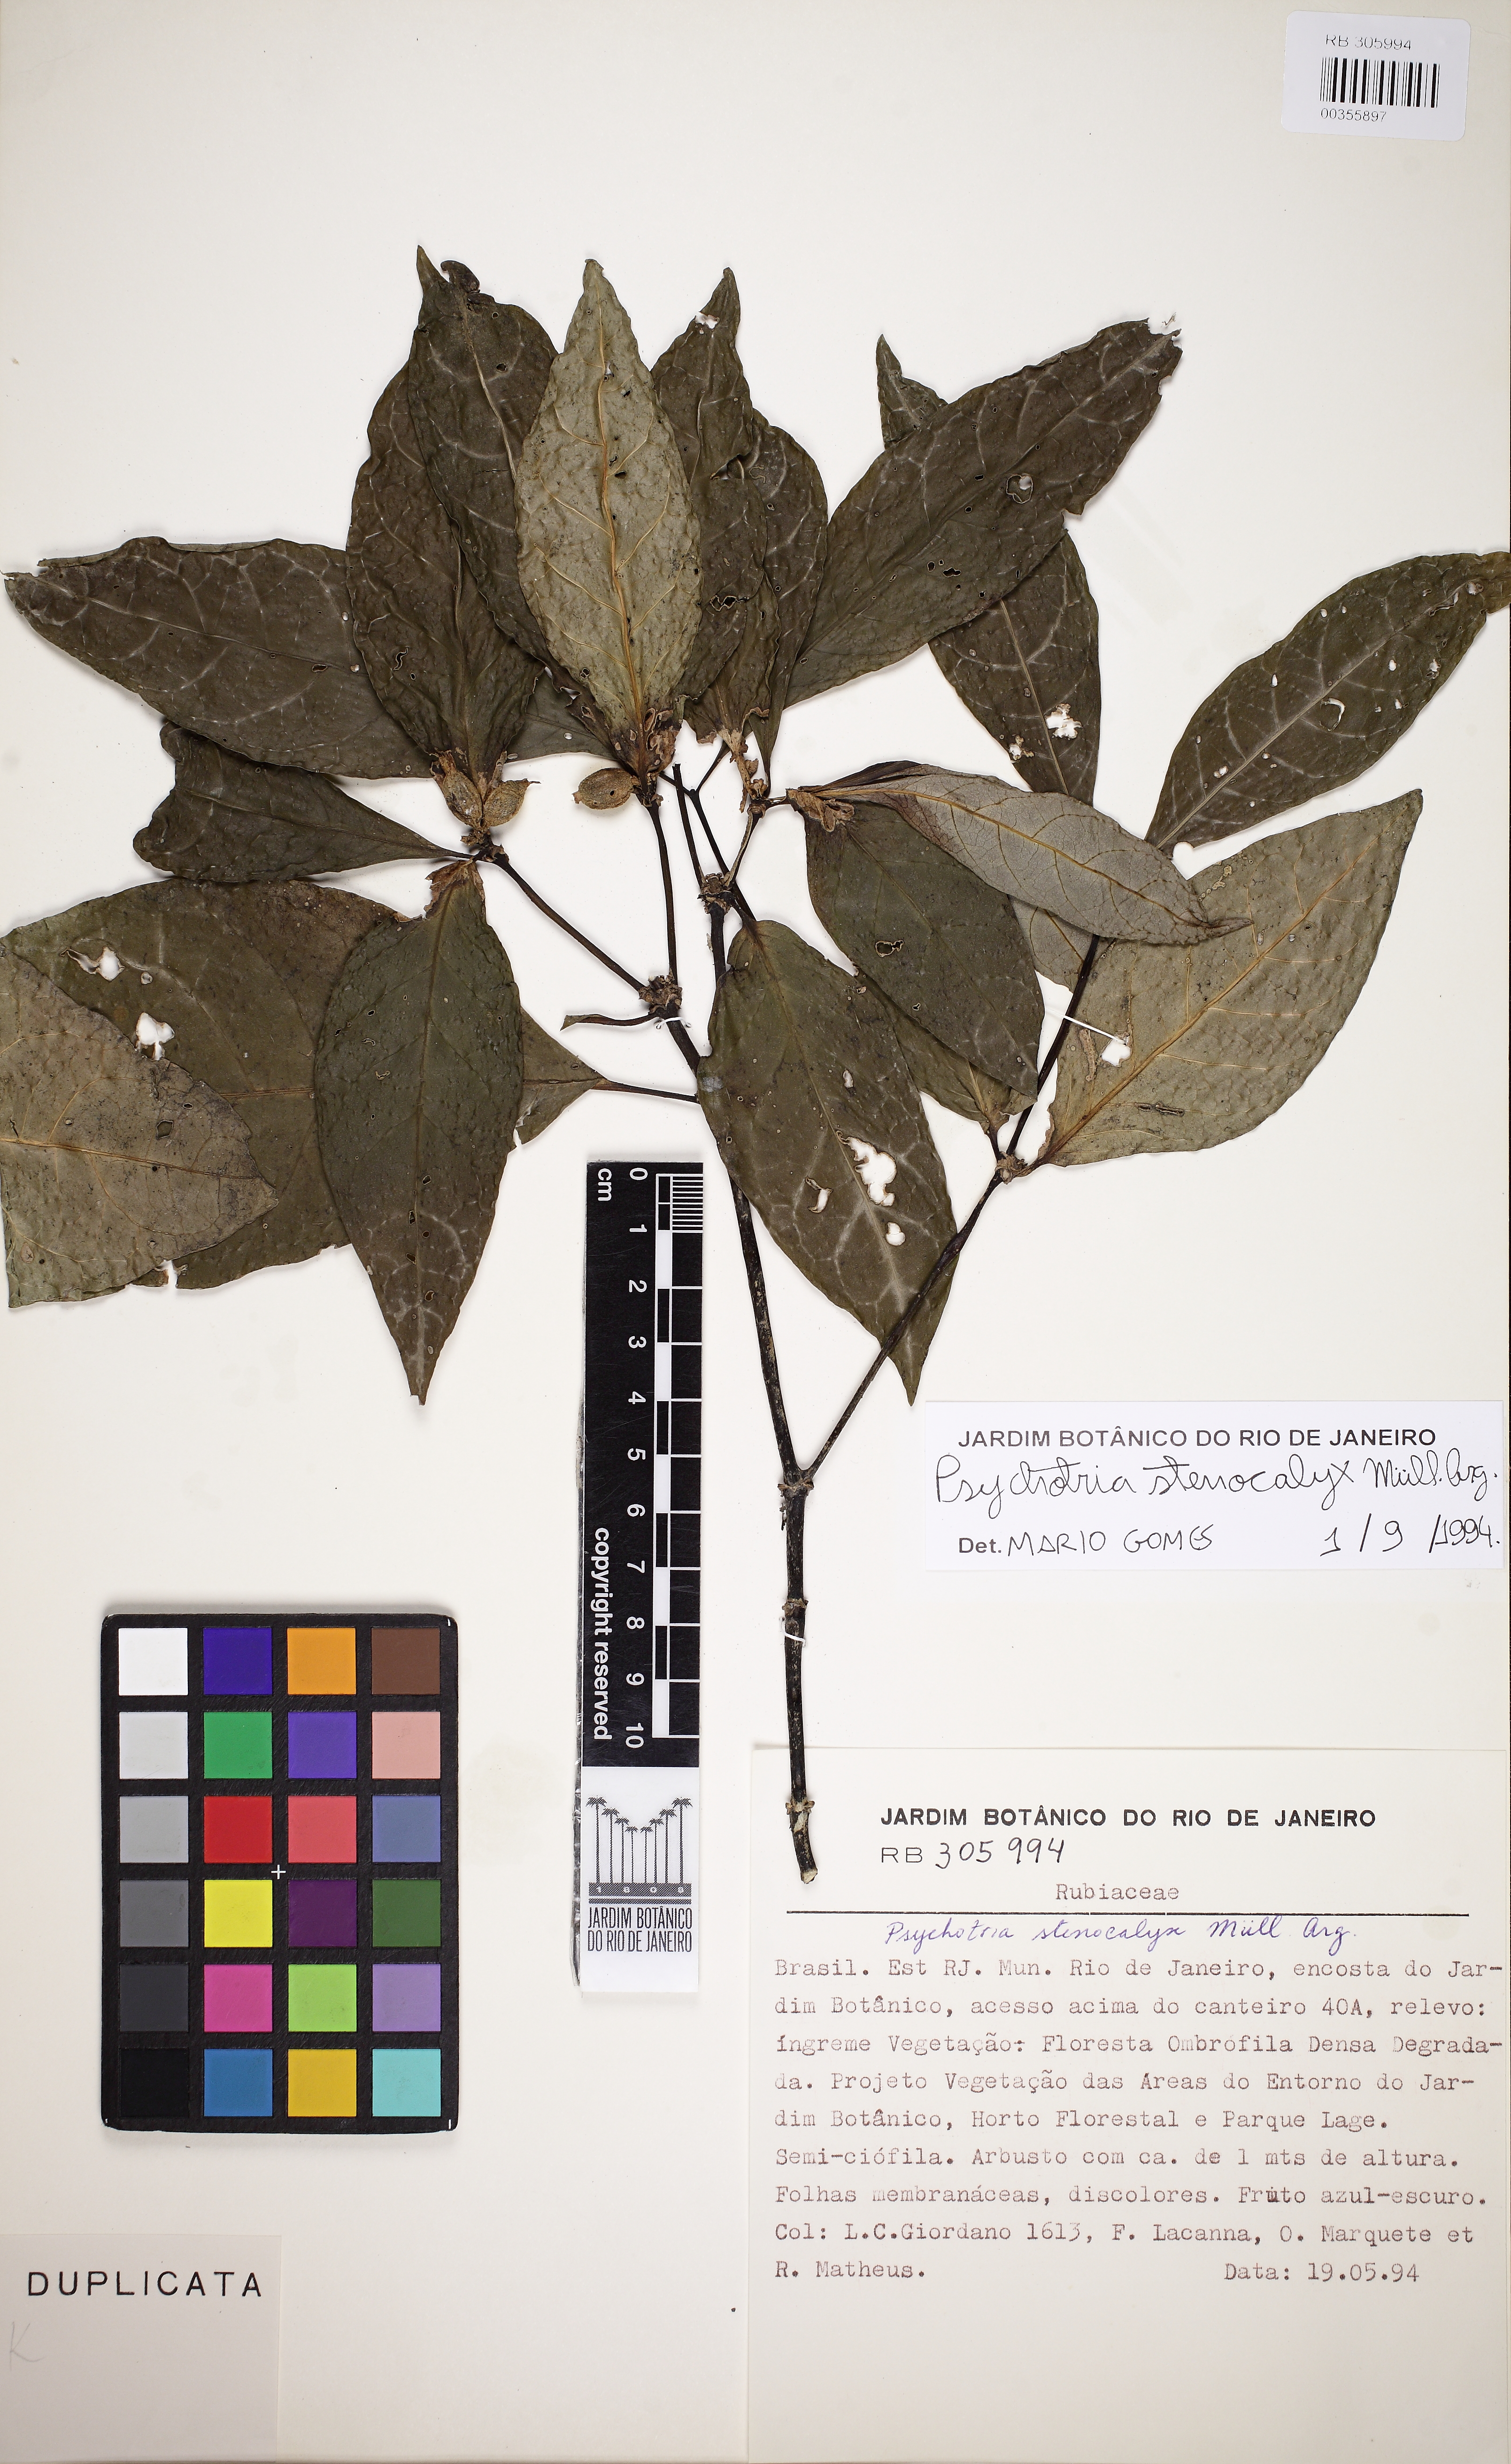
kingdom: Plantae
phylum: Tracheophyta
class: Magnoliopsida
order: Gentianales
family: Rubiaceae
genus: Psychotria
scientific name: Psychotria stenocalyx
